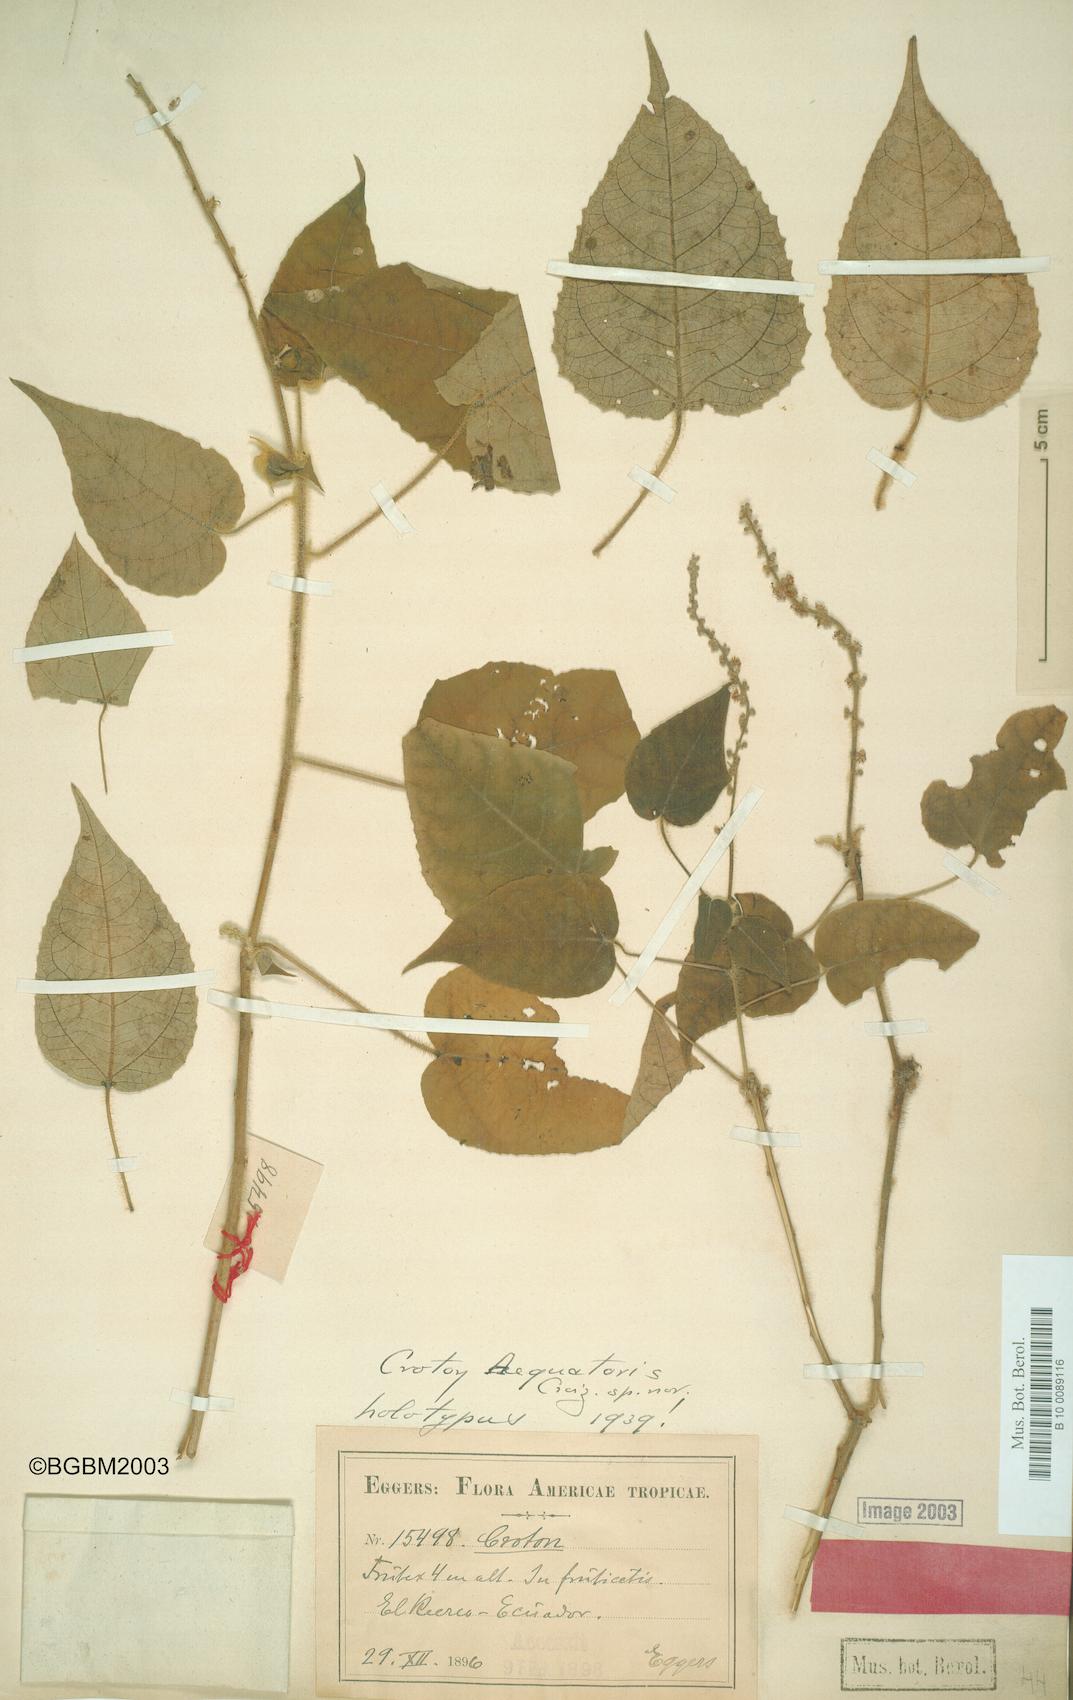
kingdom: Plantae
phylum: Tracheophyta
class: Magnoliopsida
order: Malpighiales
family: Euphorbiaceae
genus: Croton
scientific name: Croton aequatoris
